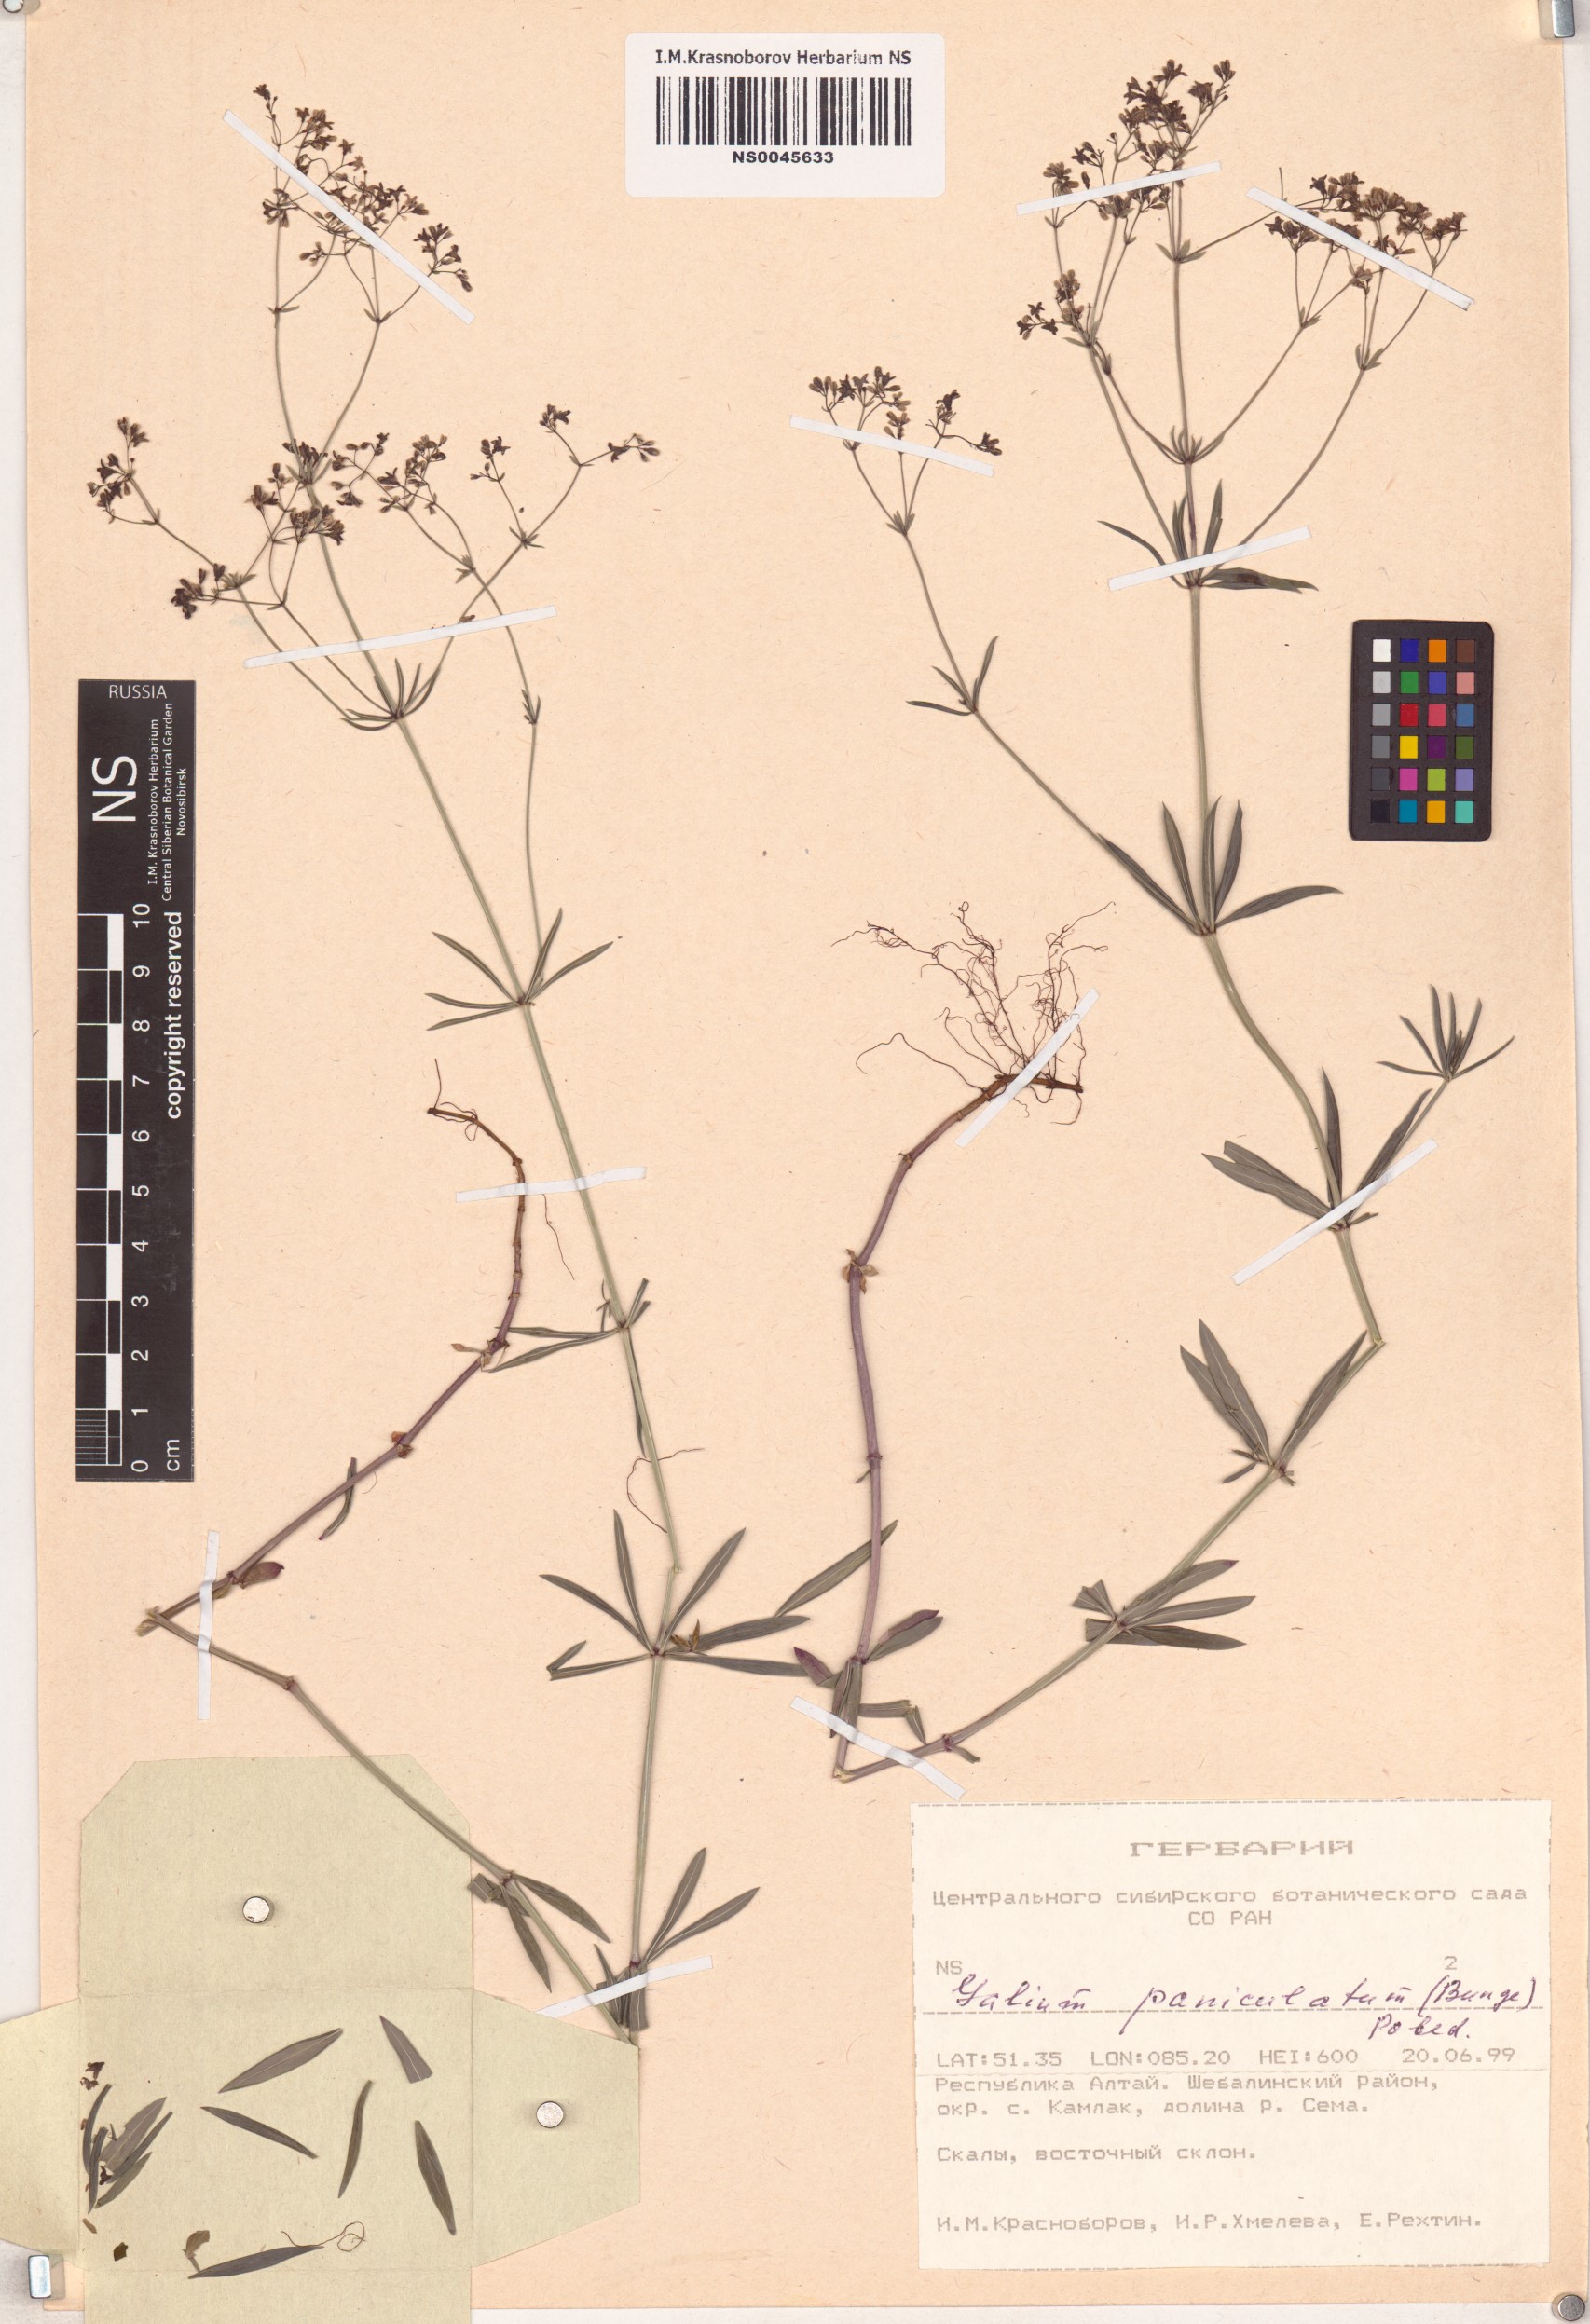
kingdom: Plantae
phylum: Tracheophyta
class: Magnoliopsida
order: Gentianales
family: Rubiaceae
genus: Galium
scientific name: Galium paniculatum
